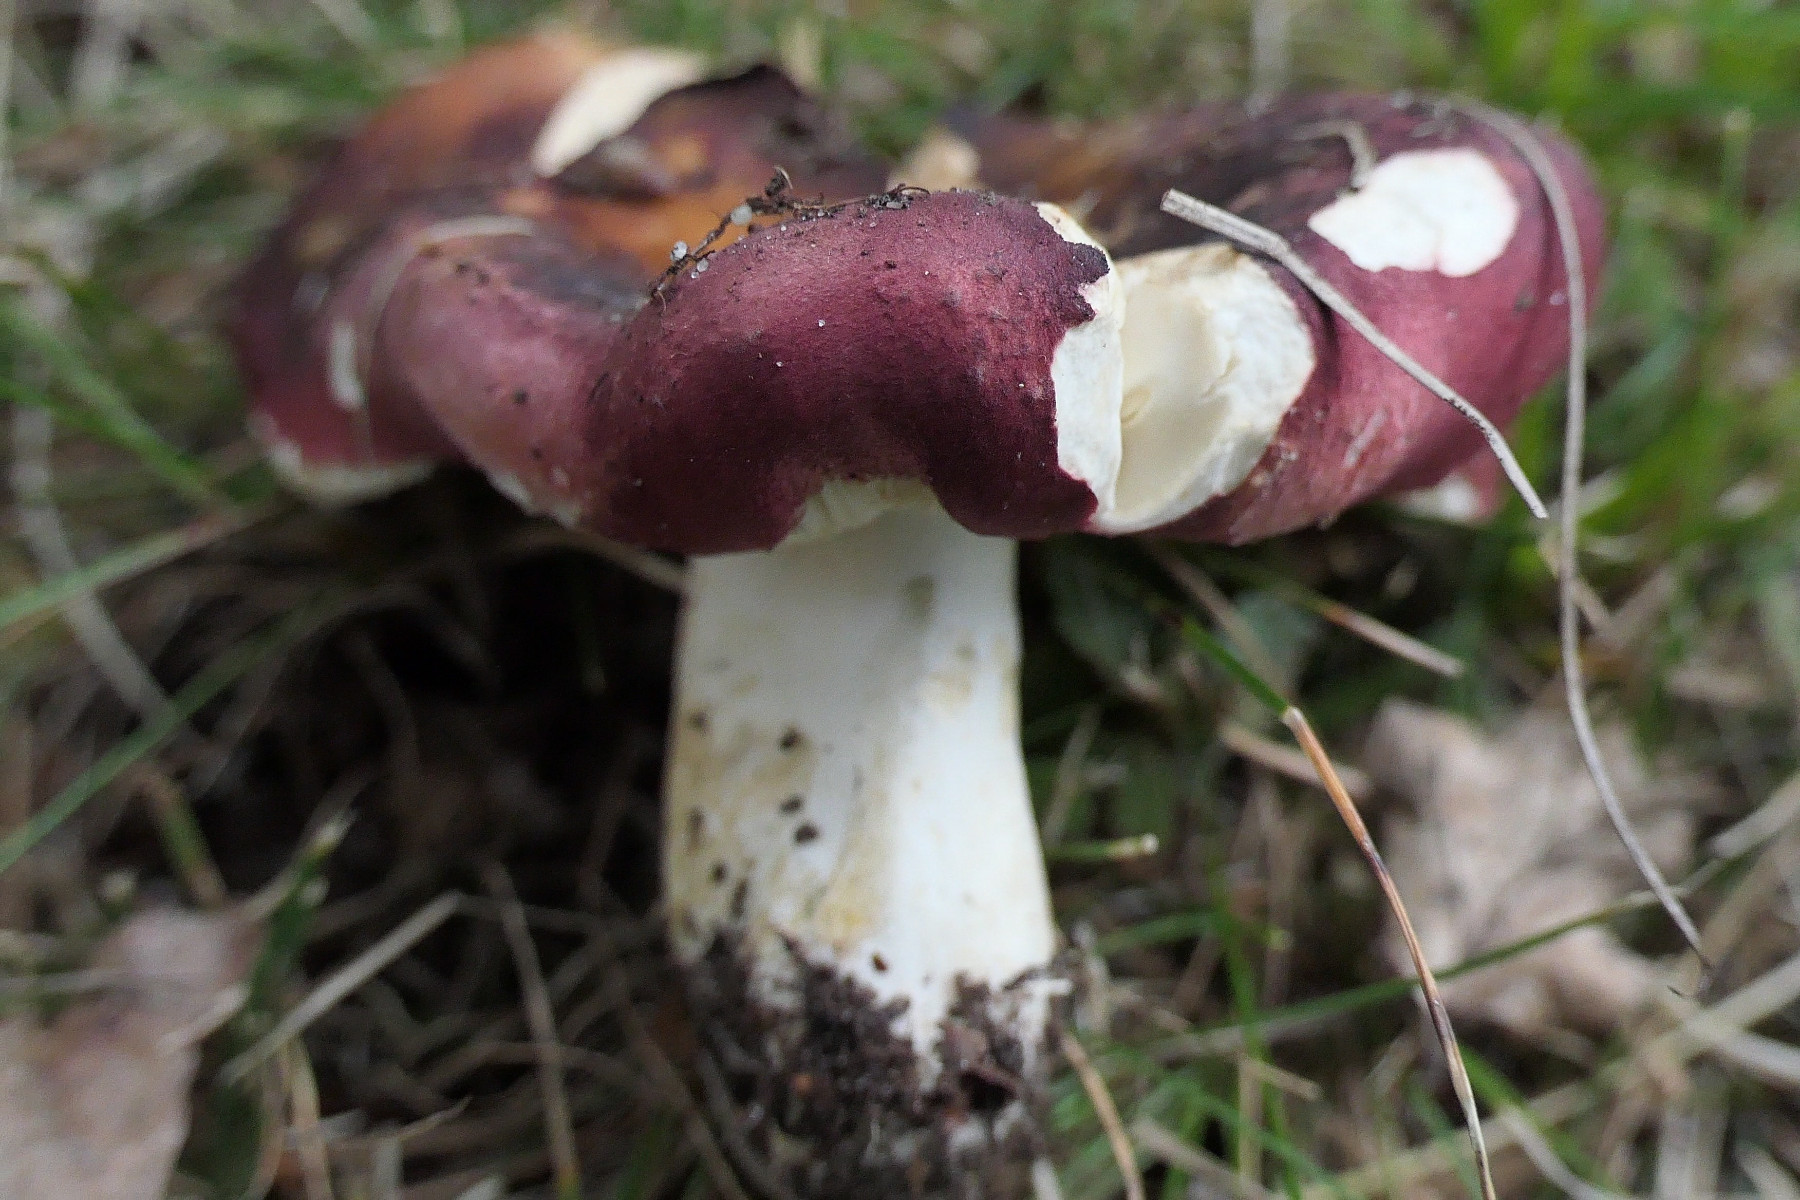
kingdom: Fungi
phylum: Basidiomycota
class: Agaricomycetes
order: Russulales
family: Russulaceae
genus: Russula
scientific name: Russula graveolens
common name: bugtet skørhat
